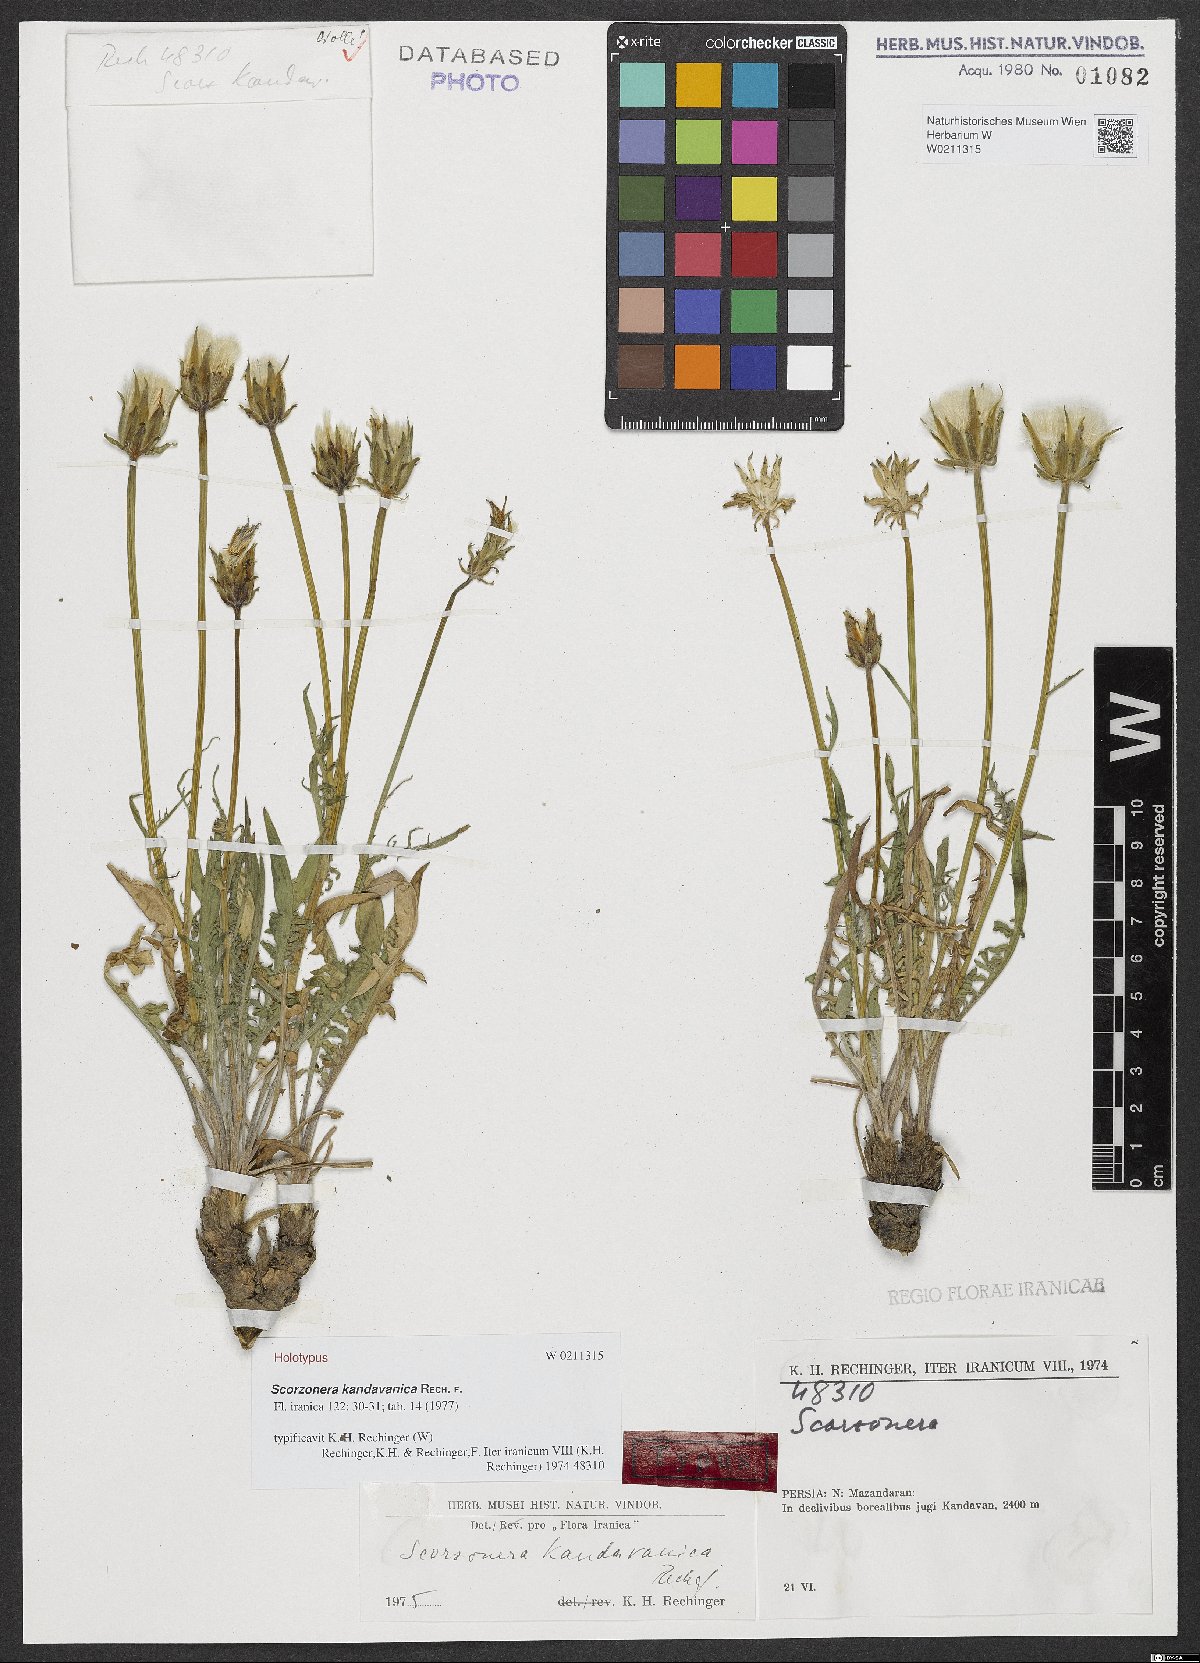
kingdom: Plantae
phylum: Tracheophyta
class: Magnoliopsida
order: Asterales
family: Asteraceae
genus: Scorzonera
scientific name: Scorzonera kandavanica
